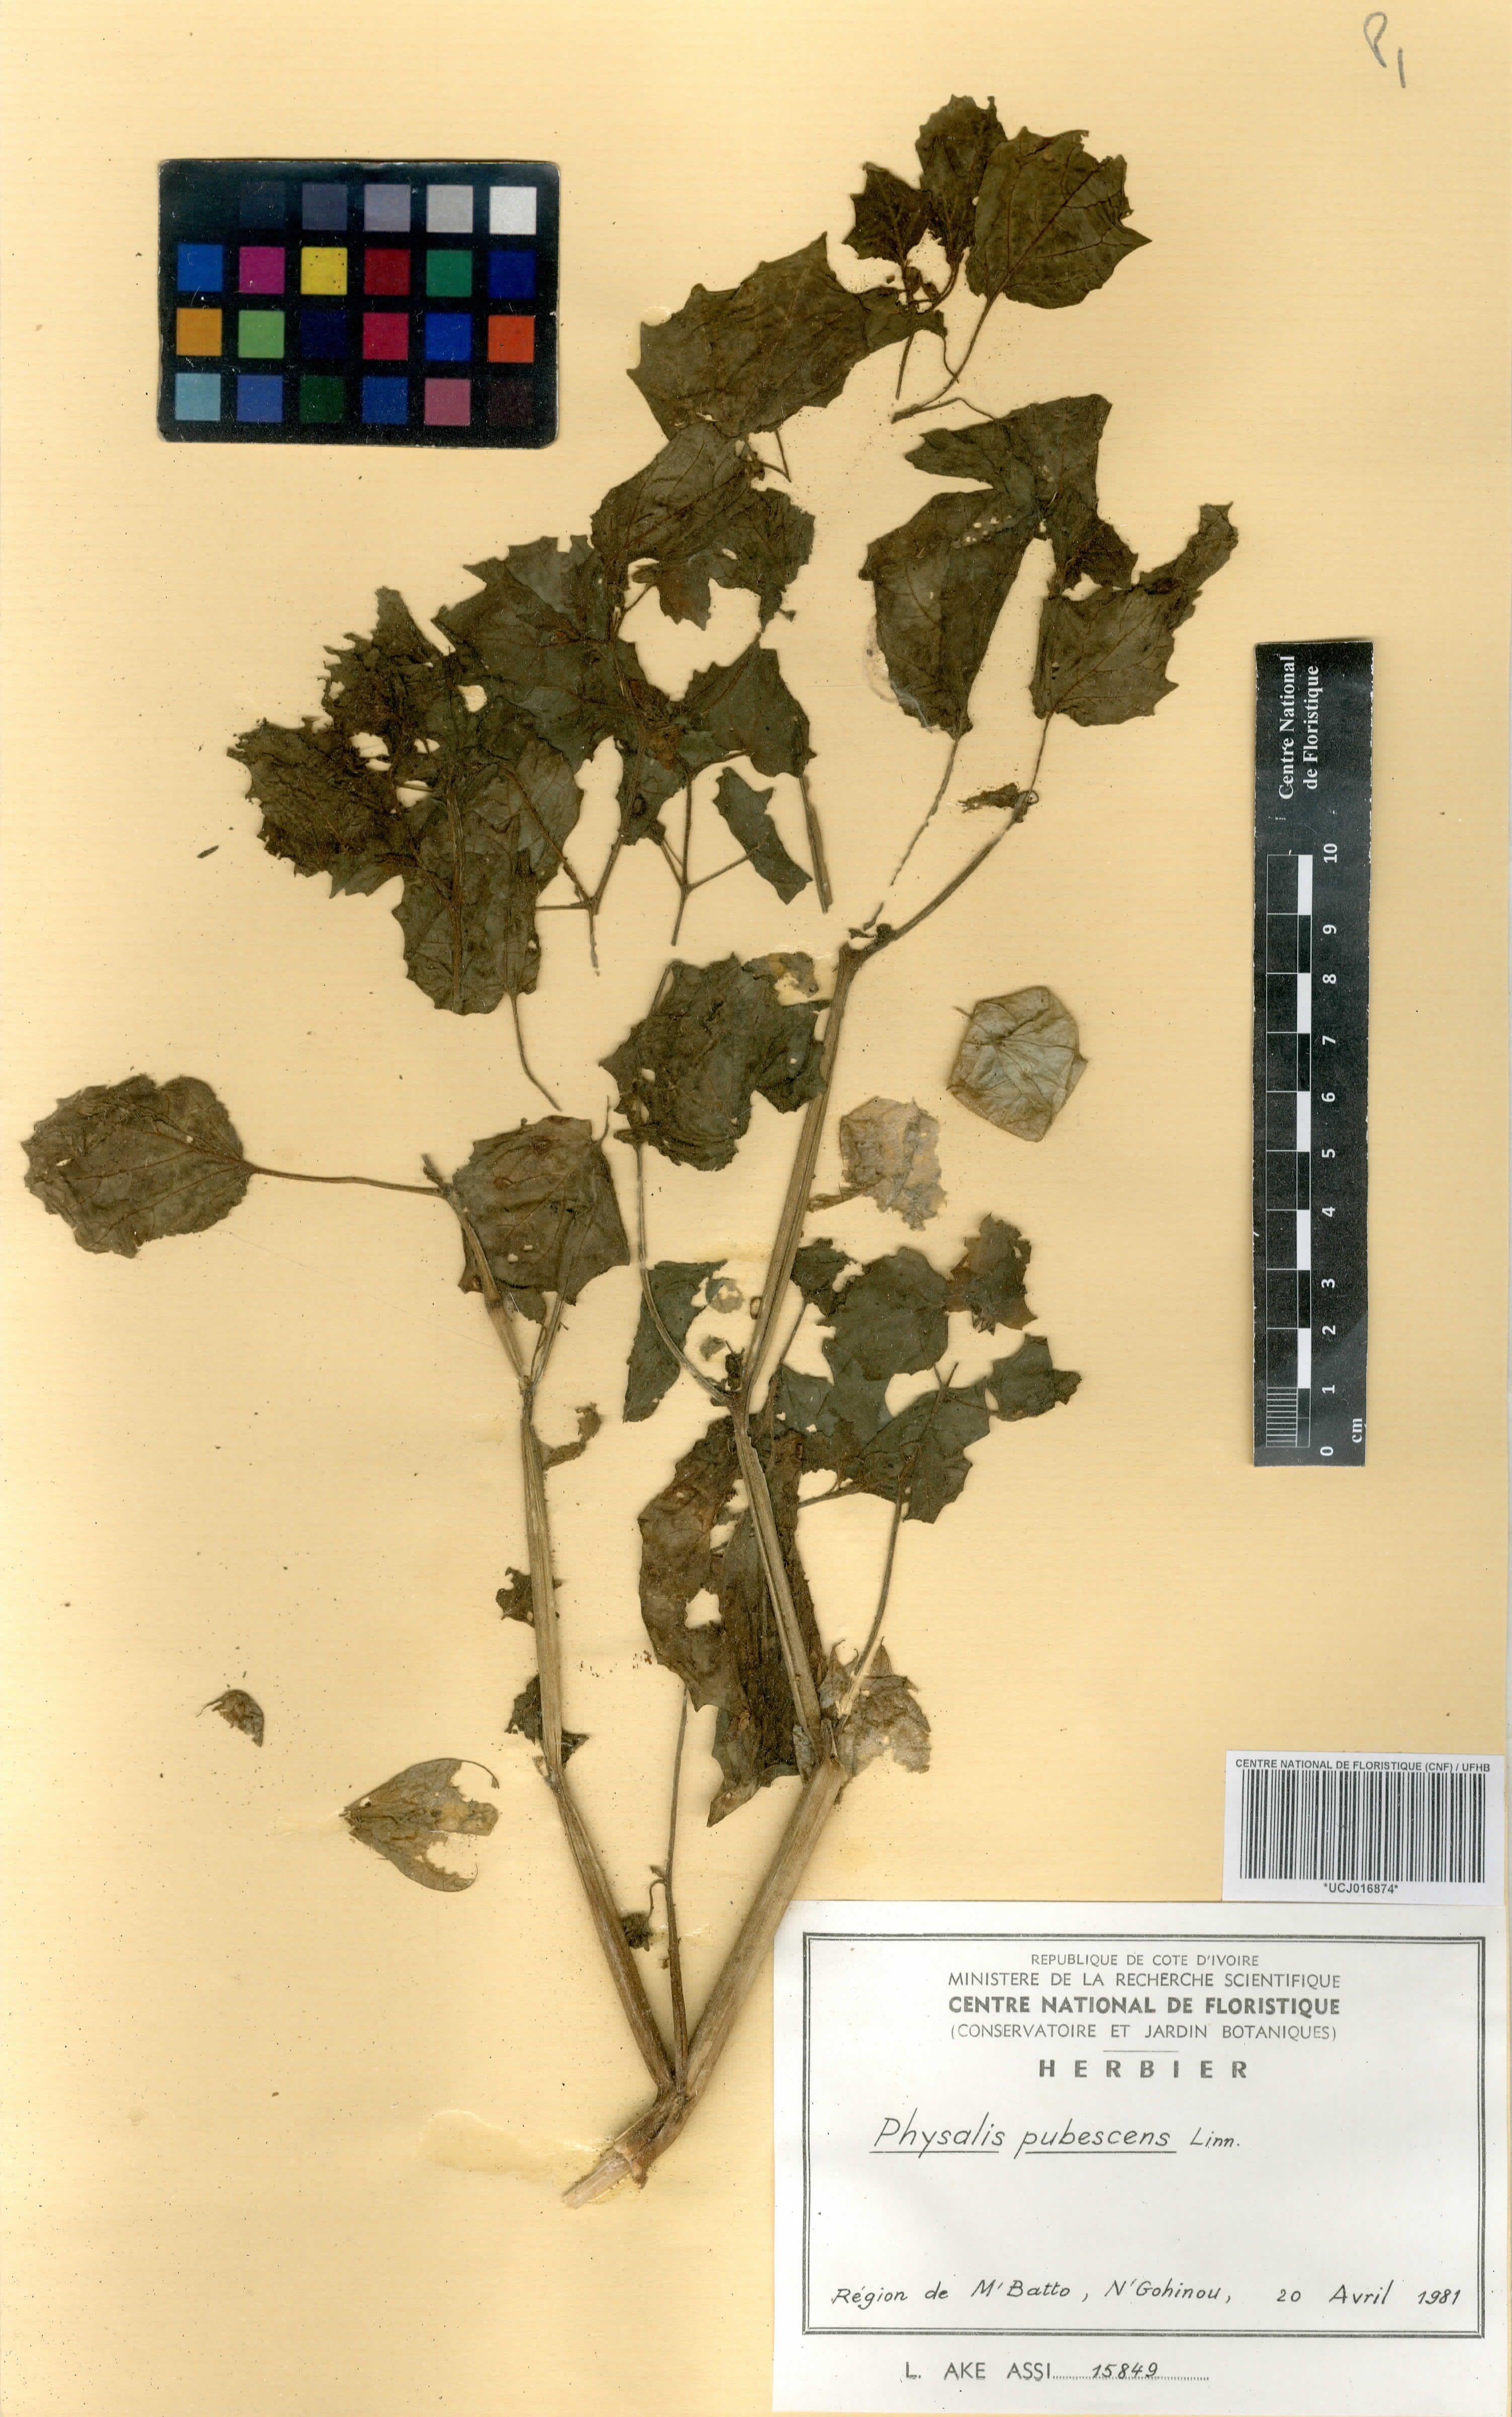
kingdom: Plantae
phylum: Tracheophyta
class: Magnoliopsida
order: Solanales
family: Solanaceae
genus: Physalis
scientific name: Physalis pubescens
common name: Downy ground-cherry
